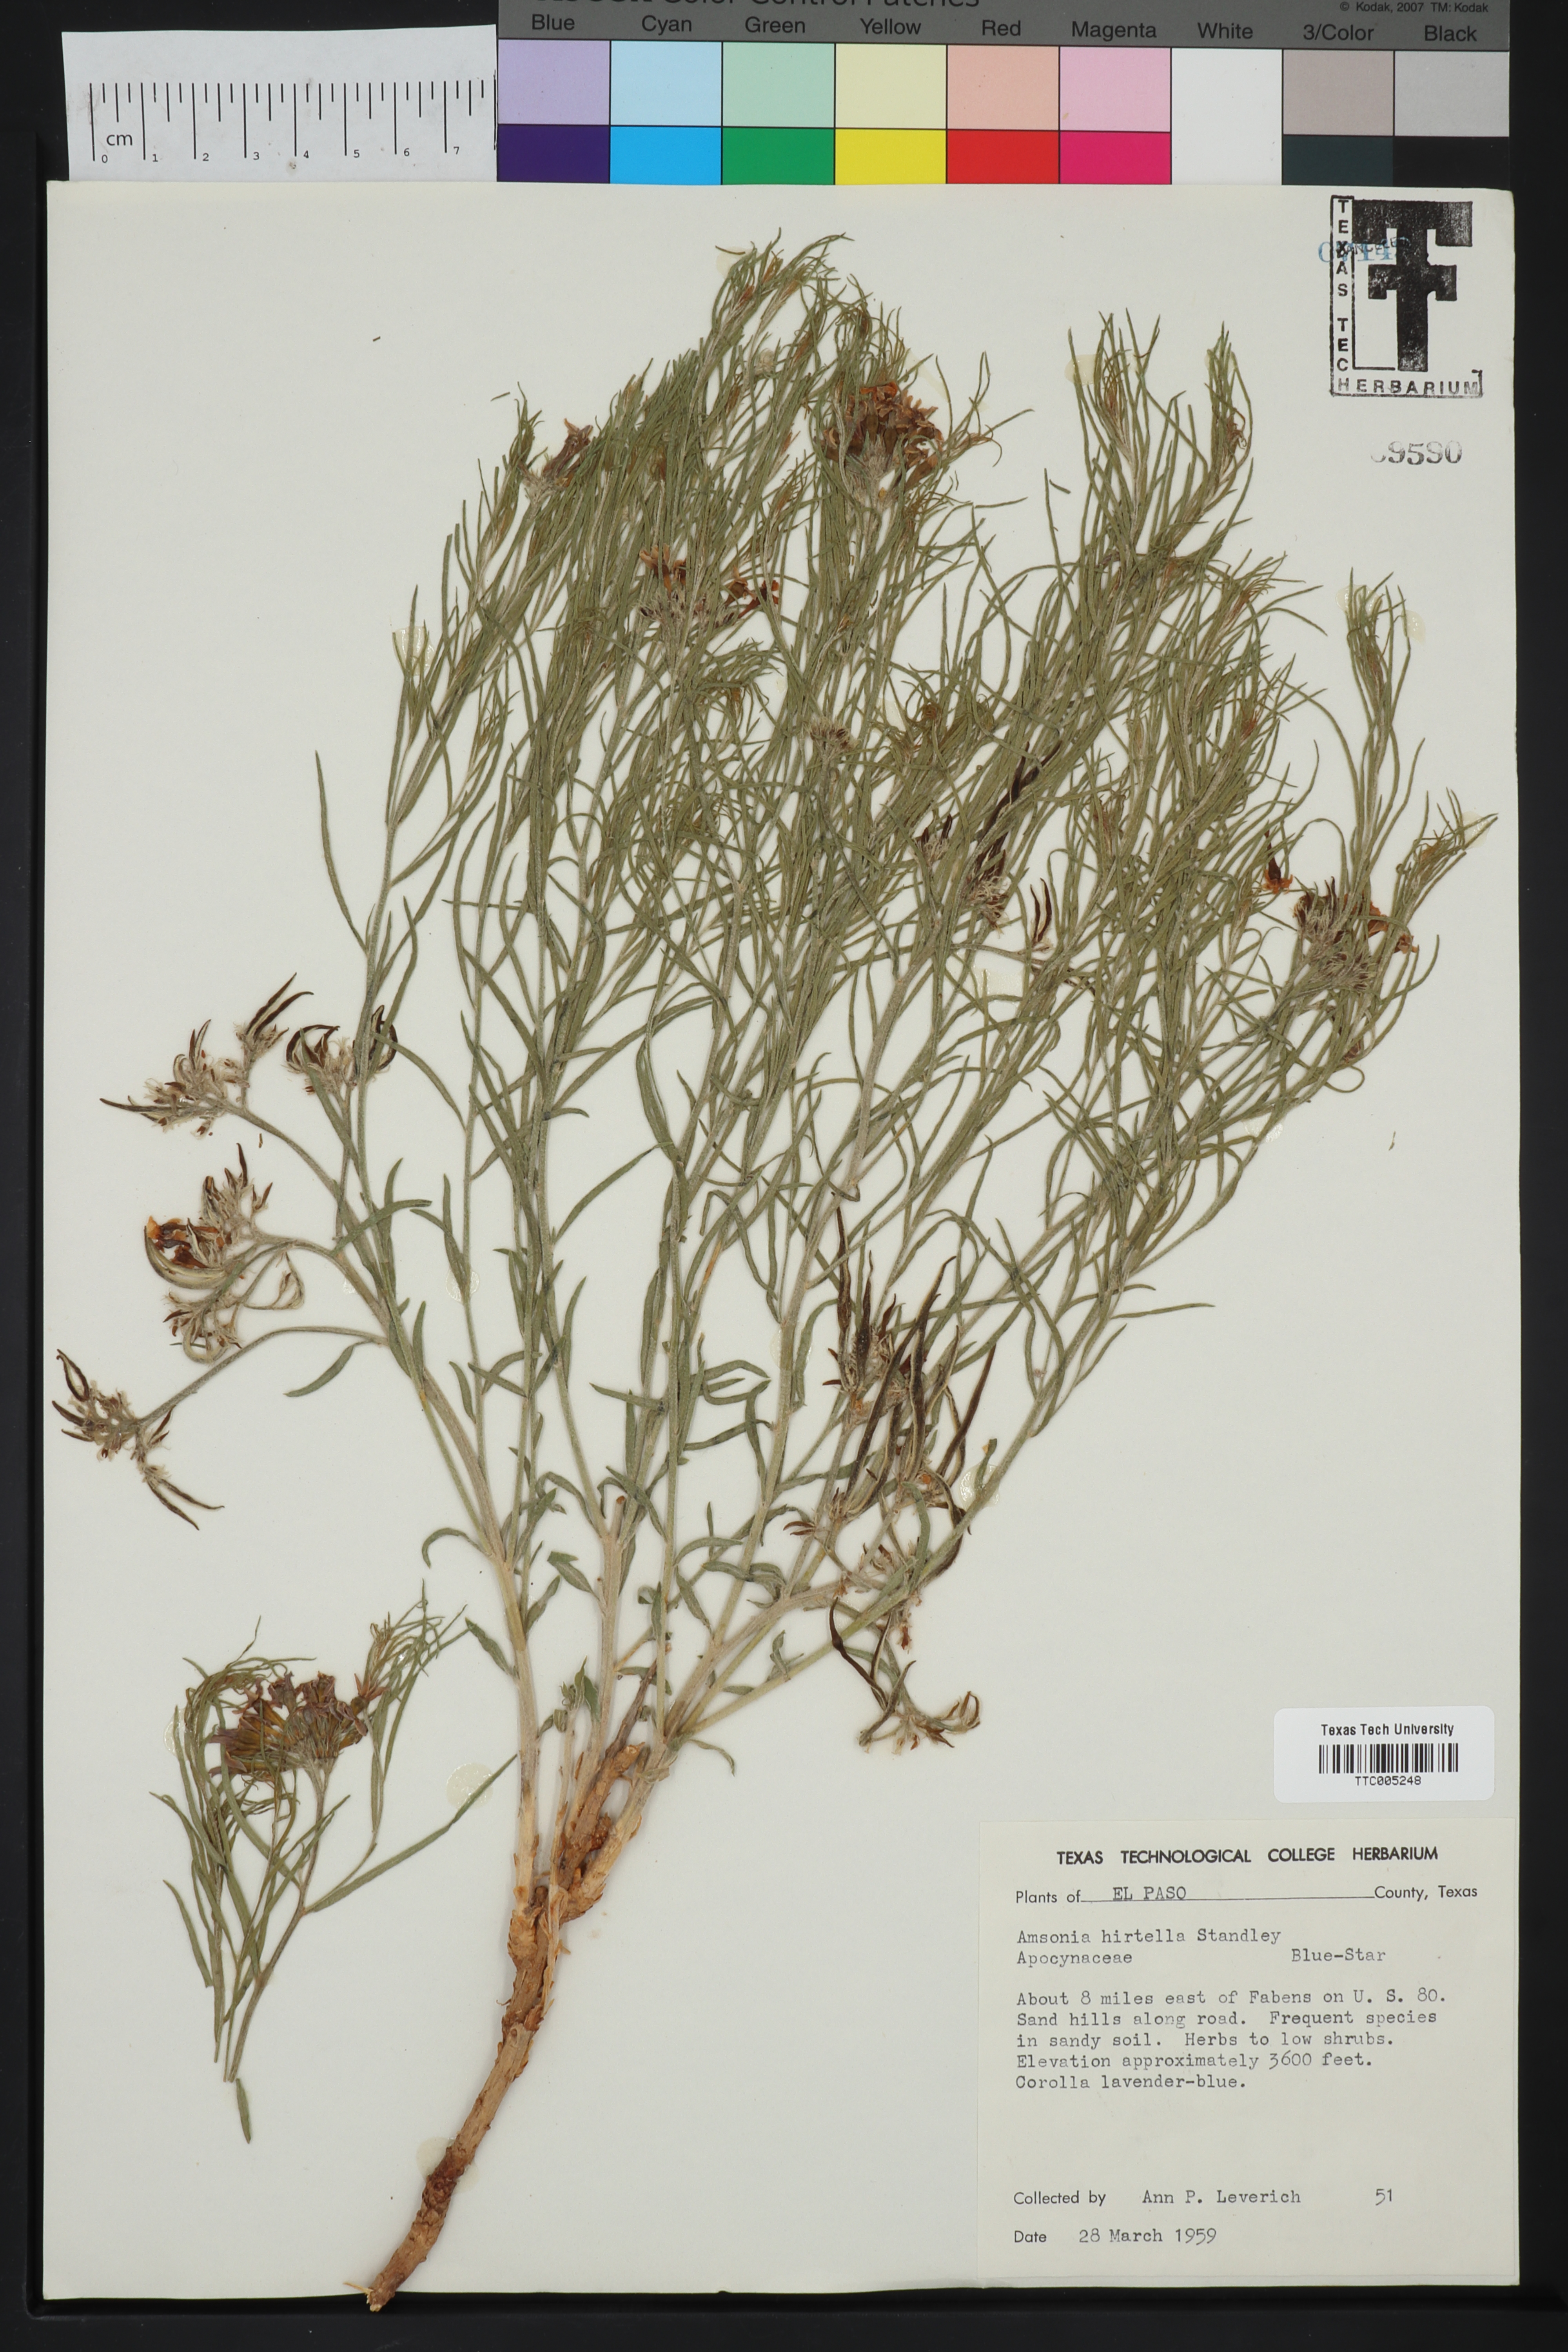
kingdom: Plantae
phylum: Tracheophyta
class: Magnoliopsida
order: Gentianales
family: Apocynaceae
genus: Amsonia
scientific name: Amsonia palmeri
